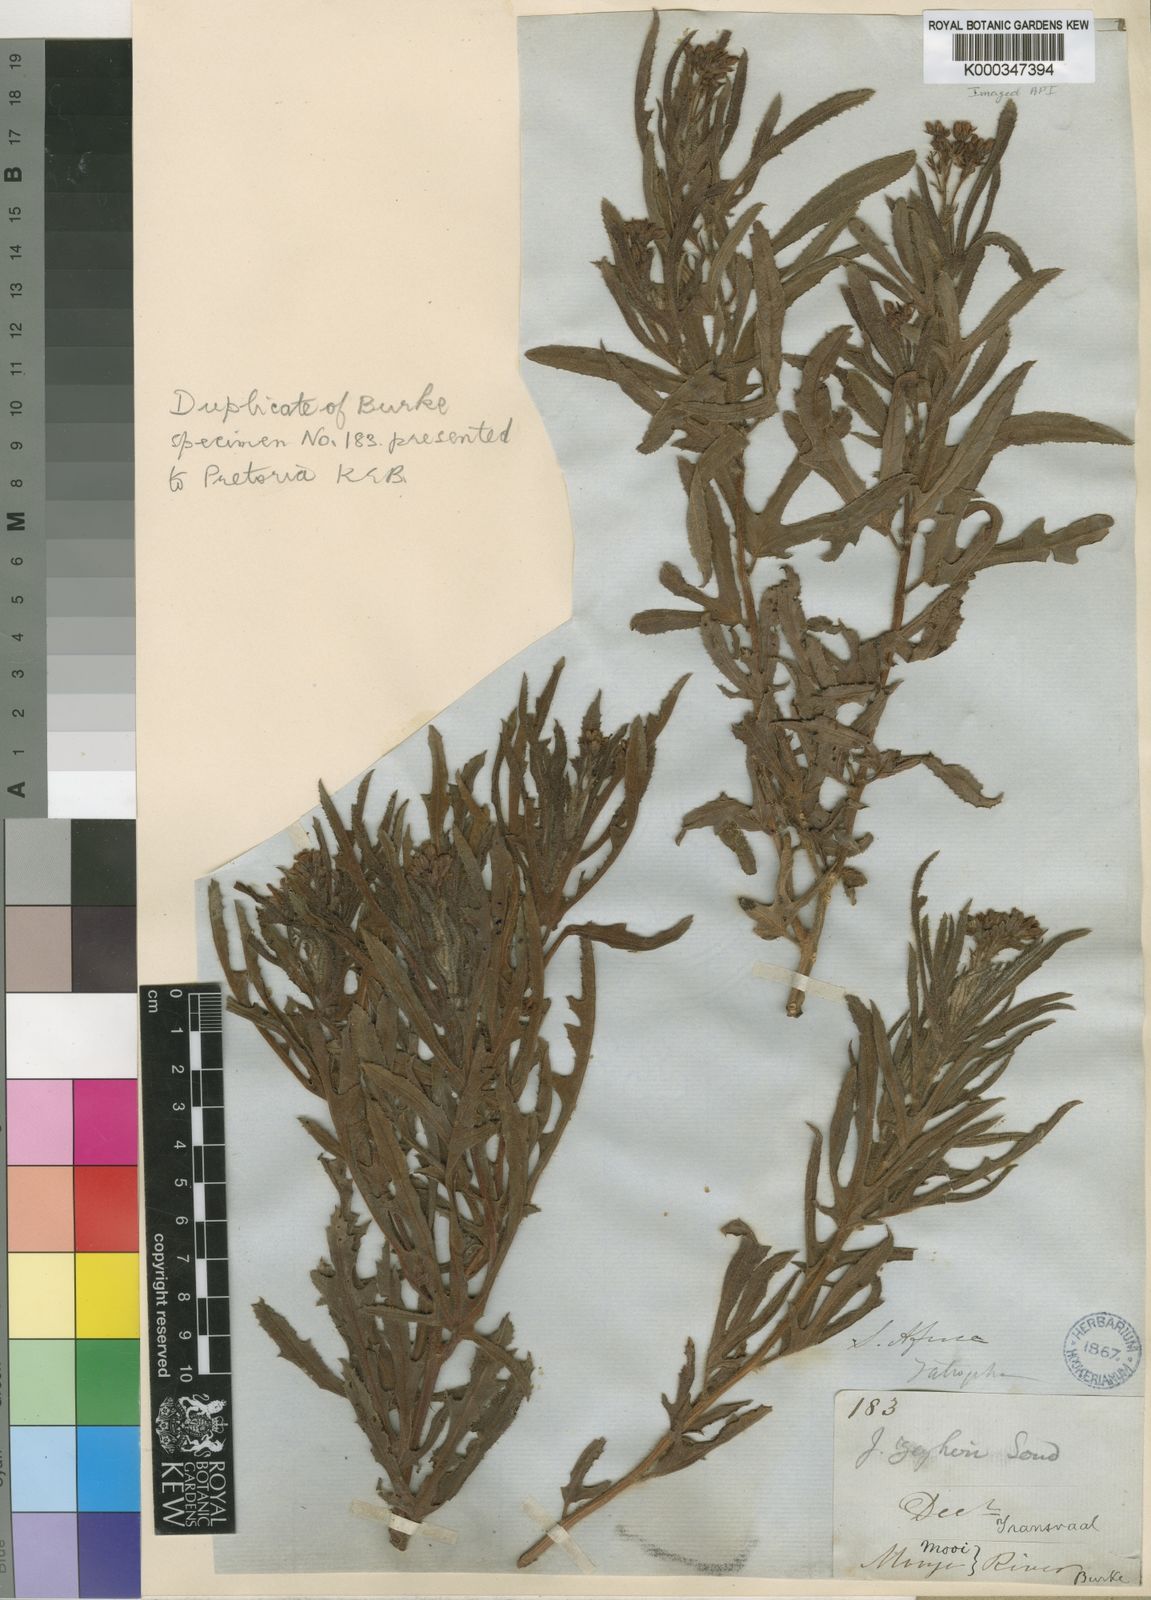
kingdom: Plantae
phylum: Tracheophyta
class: Magnoliopsida
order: Malpighiales
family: Euphorbiaceae
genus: Jatropha
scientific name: Jatropha zeyheri
